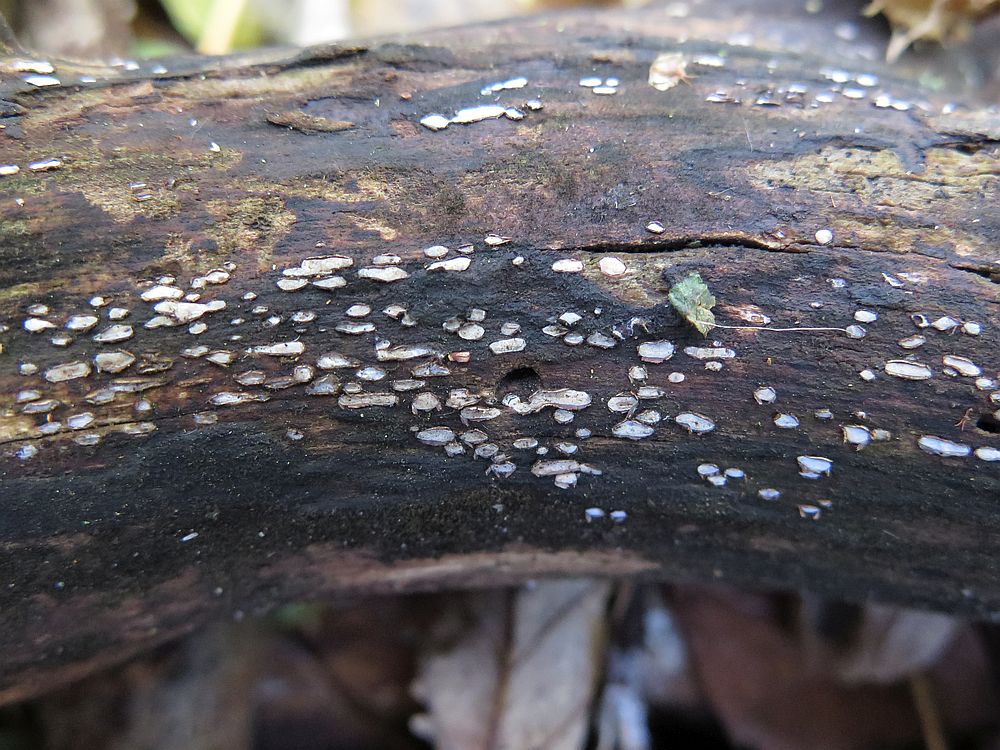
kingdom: Fungi
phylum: Ascomycota
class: Leotiomycetes
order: Chaetomellales
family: Marthamycetaceae
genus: Propolis
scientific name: Propolis farinosa
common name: almindelig vedsprængerskive
